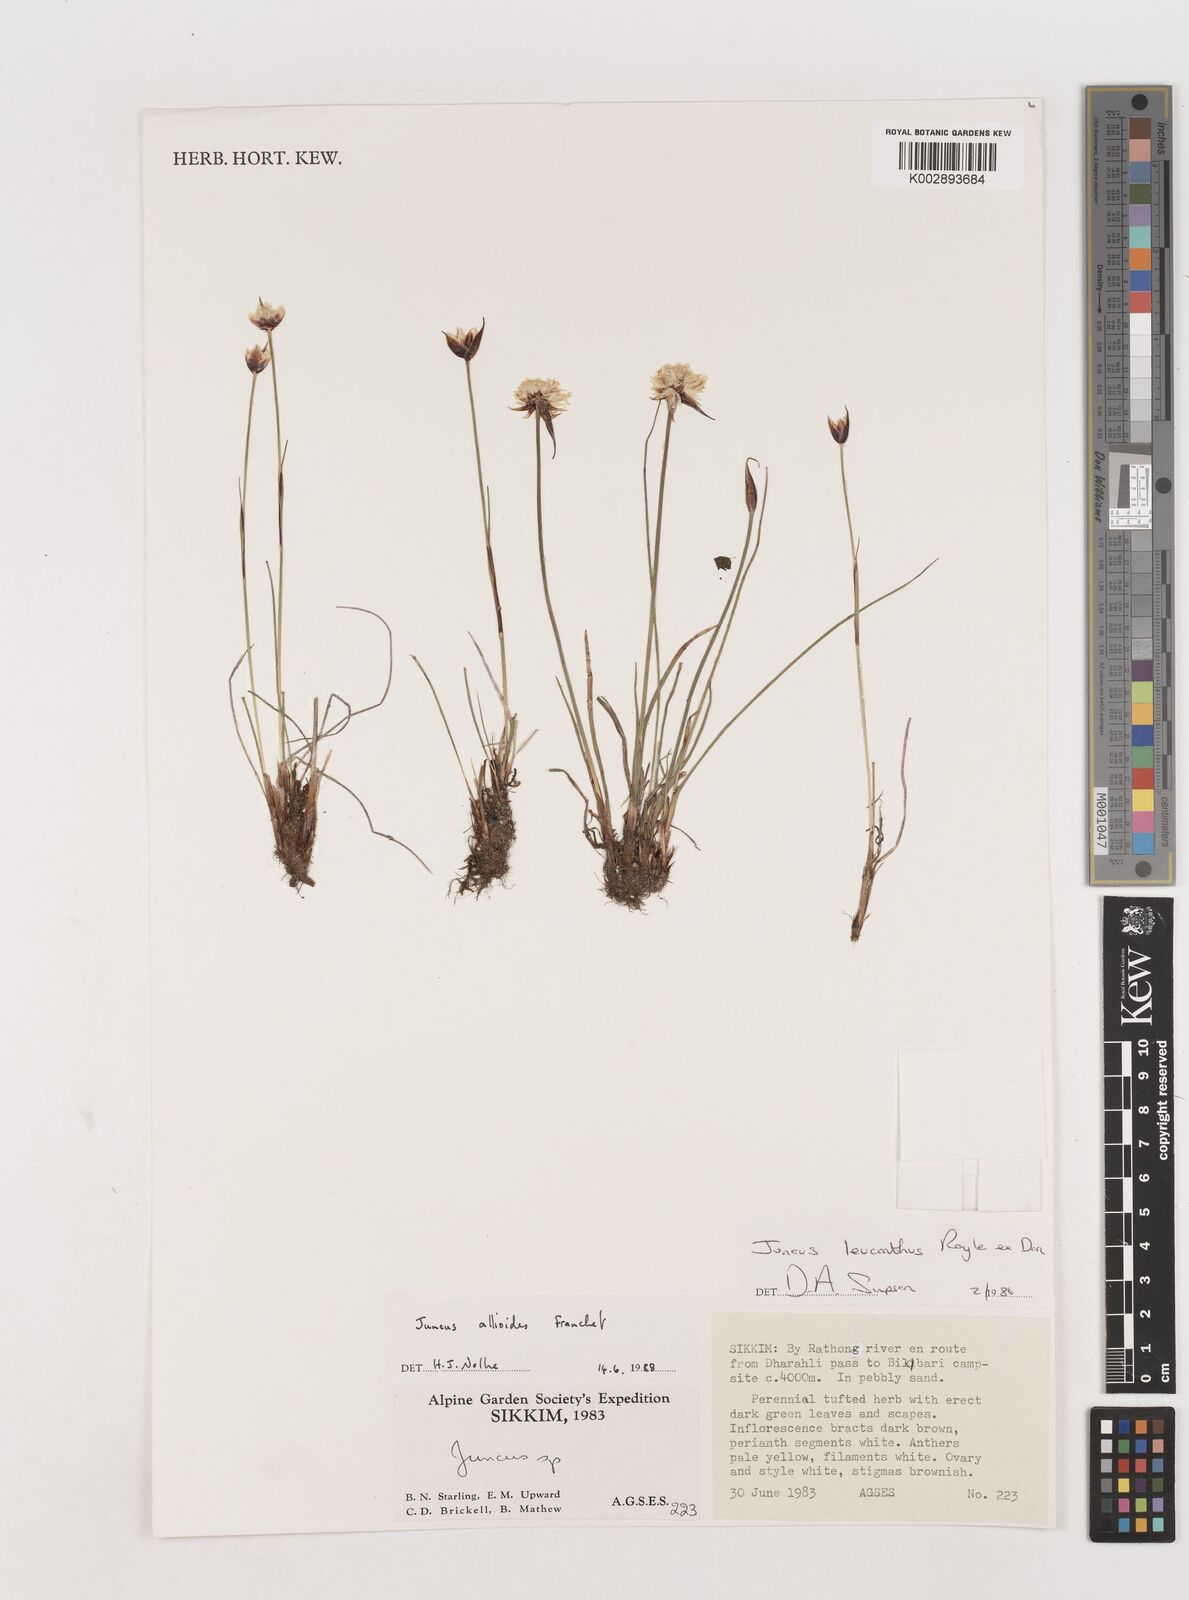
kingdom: Plantae
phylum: Tracheophyta
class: Liliopsida
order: Poales
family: Juncaceae
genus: Juncus
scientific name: Juncus allioides
